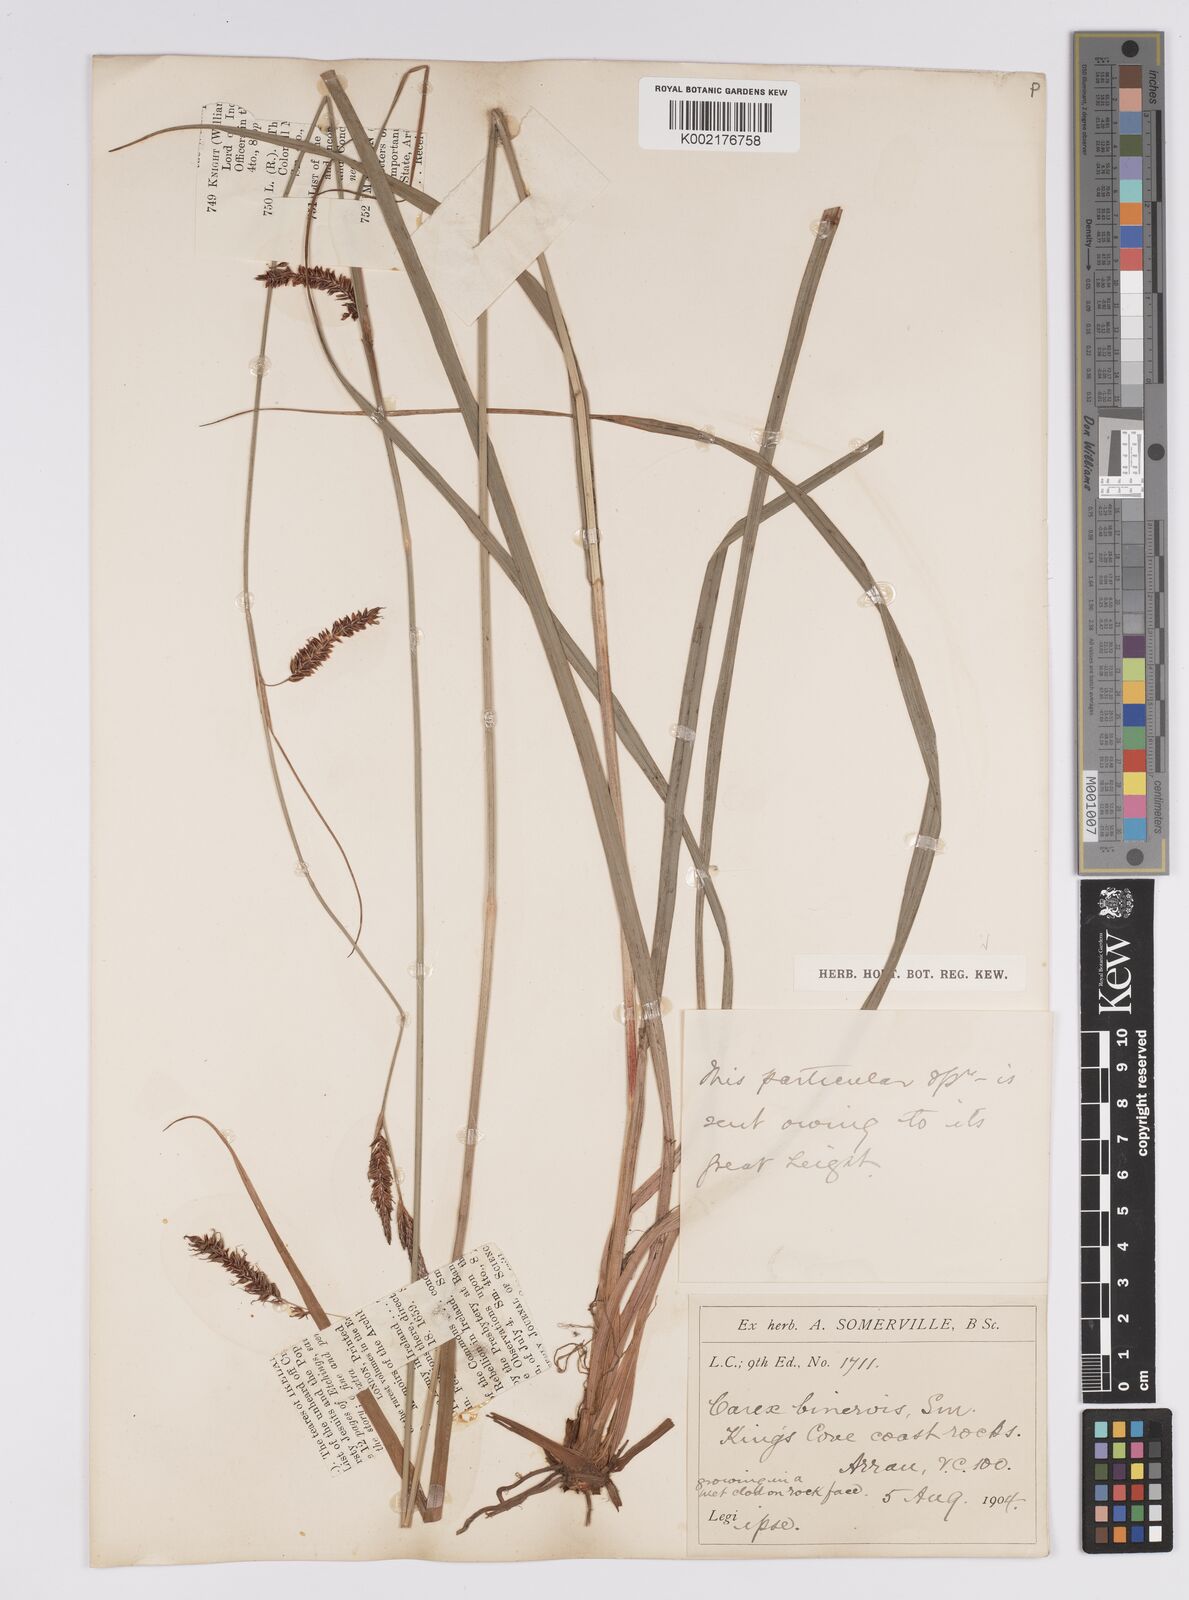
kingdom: Plantae
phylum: Tracheophyta
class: Liliopsida
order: Poales
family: Cyperaceae
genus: Carex
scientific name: Carex binervis
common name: Green-ribbed sedge
